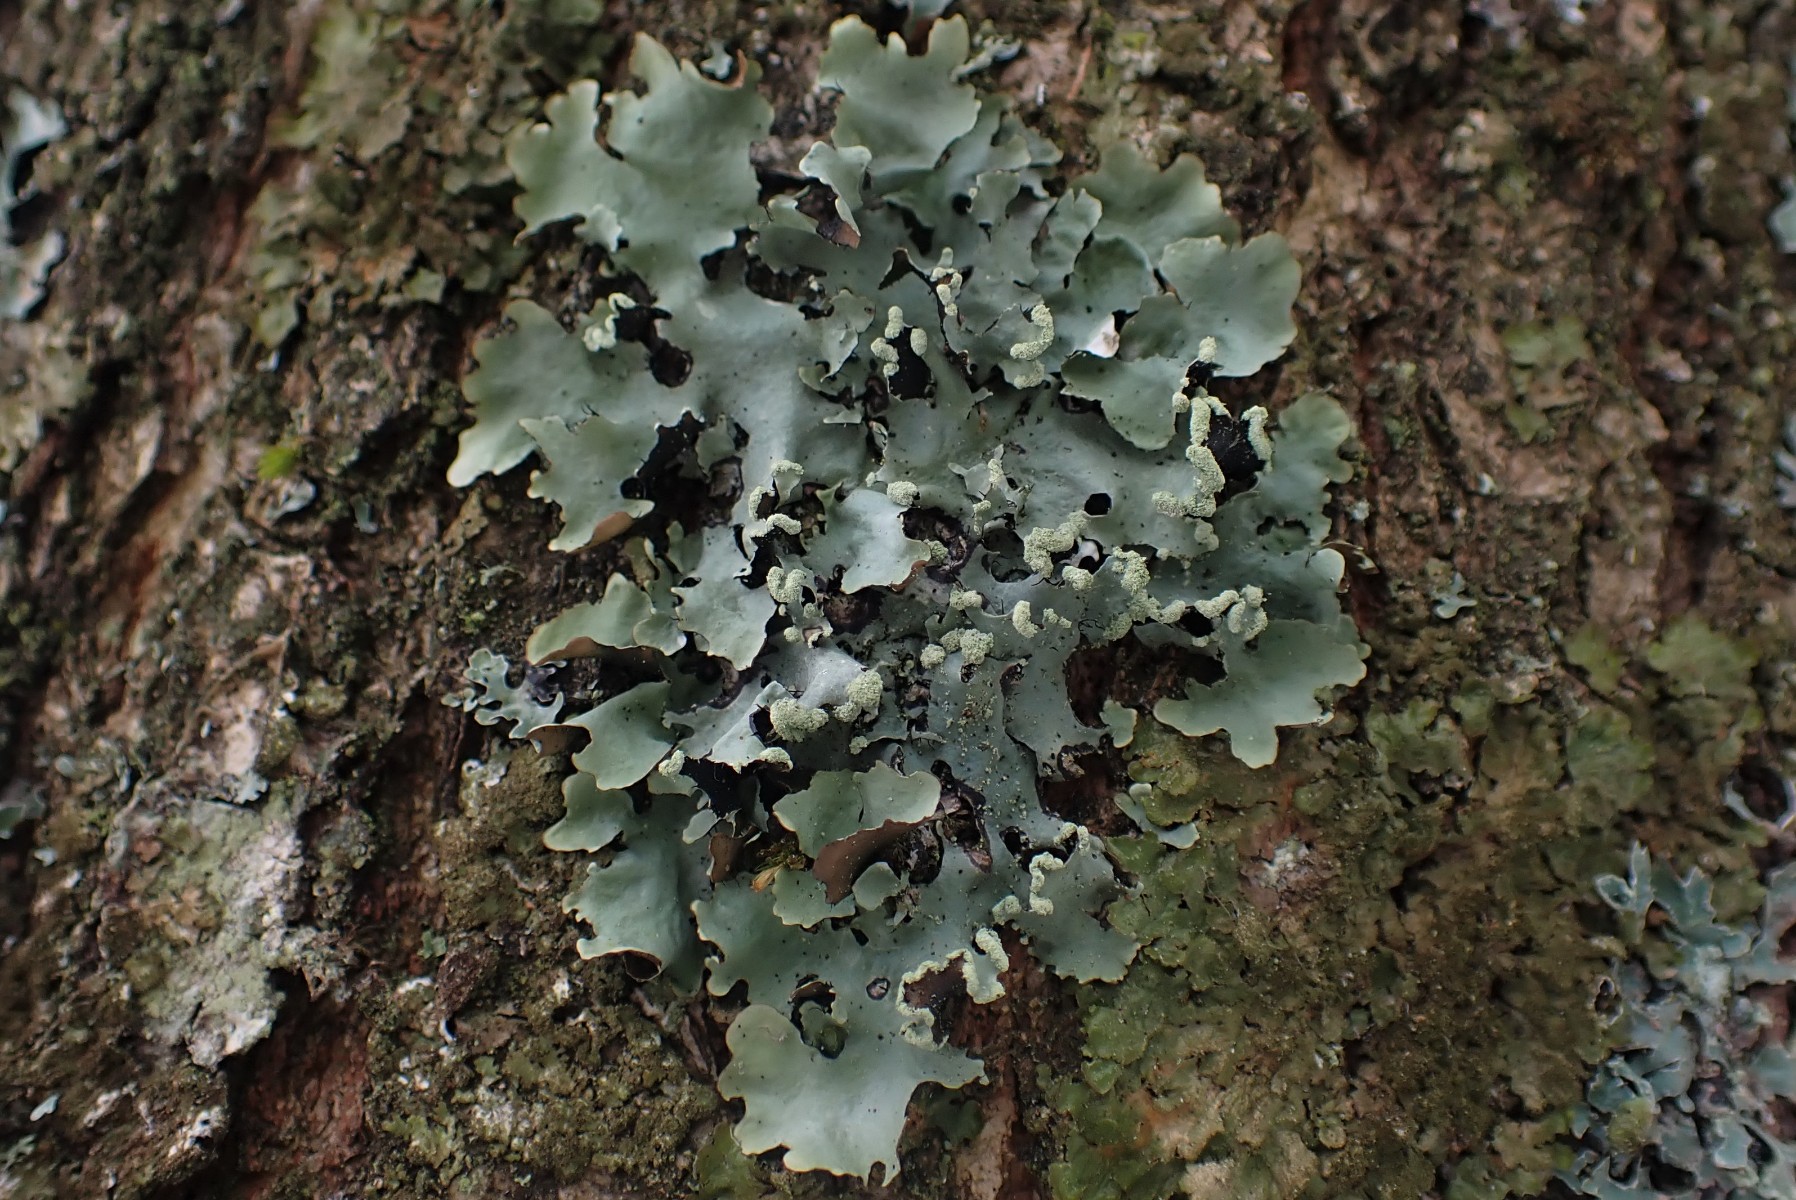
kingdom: Fungi
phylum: Ascomycota
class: Lecanoromycetes
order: Lecanorales
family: Parmeliaceae
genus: Parmotrema
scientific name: Parmotrema perlatum
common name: trådet skållav
